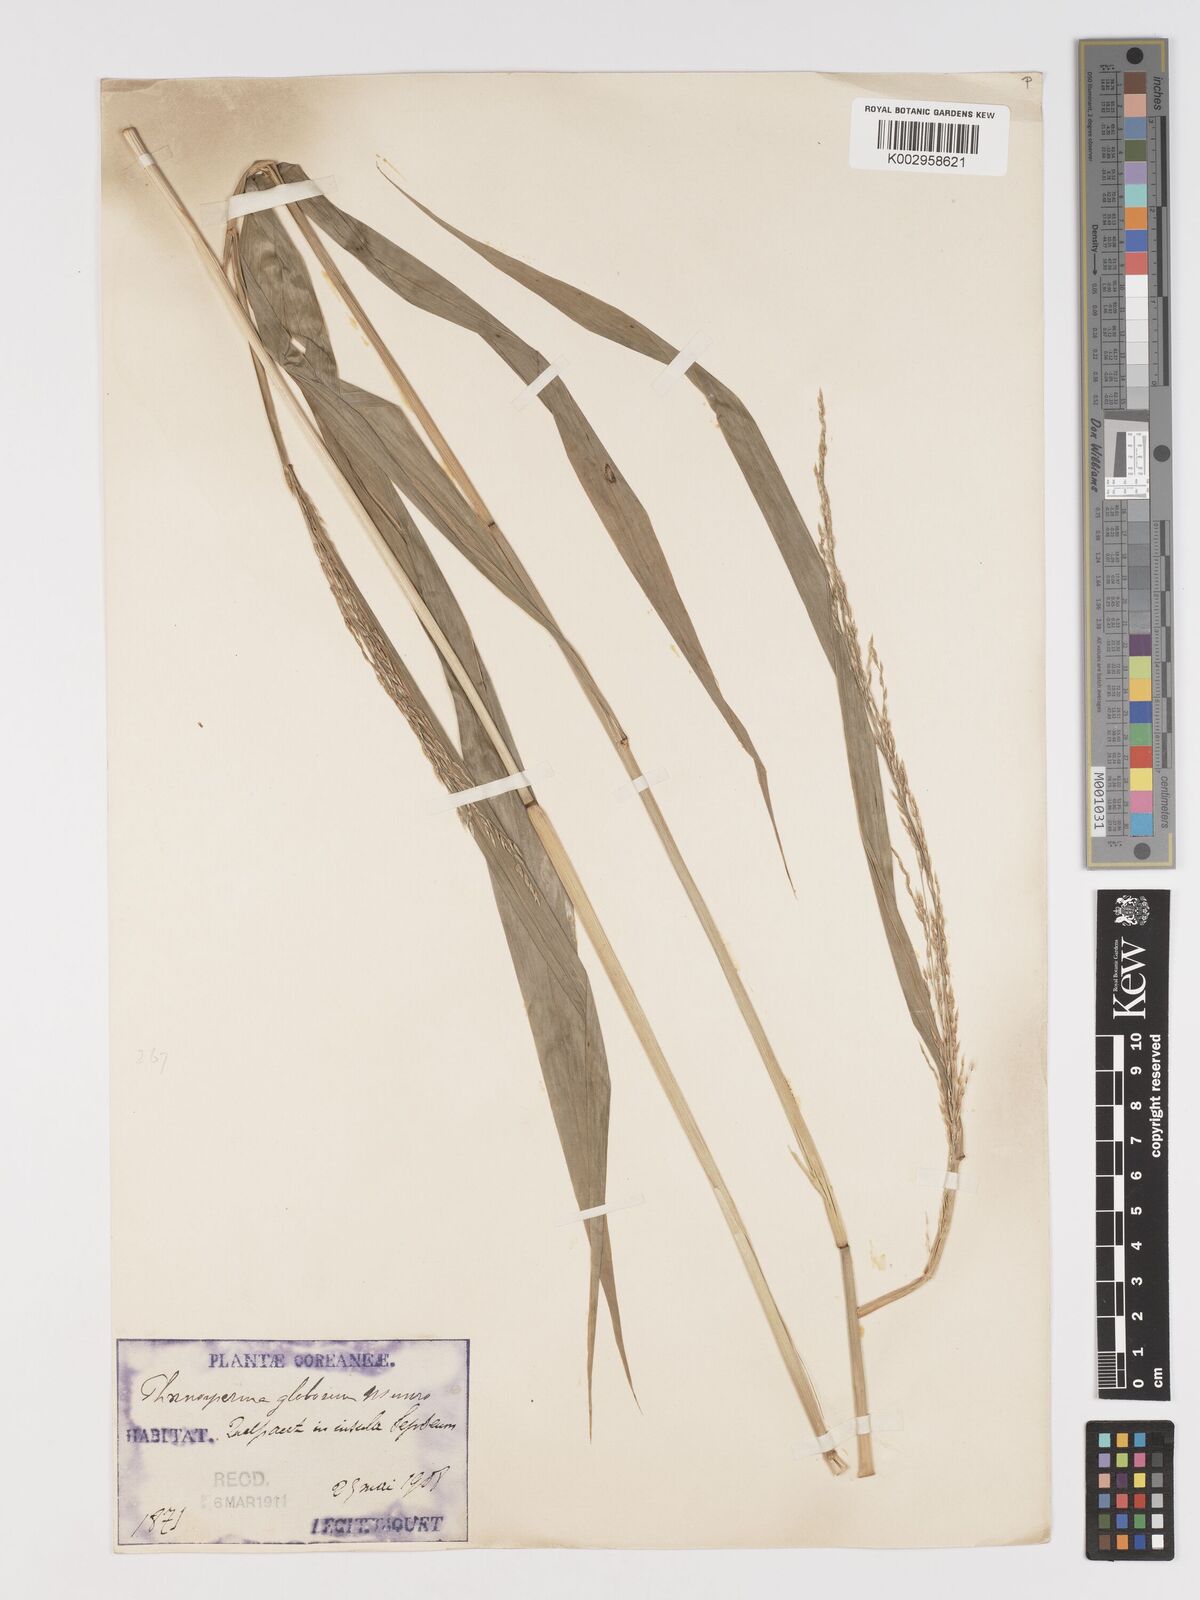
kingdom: Plantae
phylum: Tracheophyta
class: Liliopsida
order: Poales
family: Poaceae
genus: Phaenosperma
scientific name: Phaenosperma globosum
